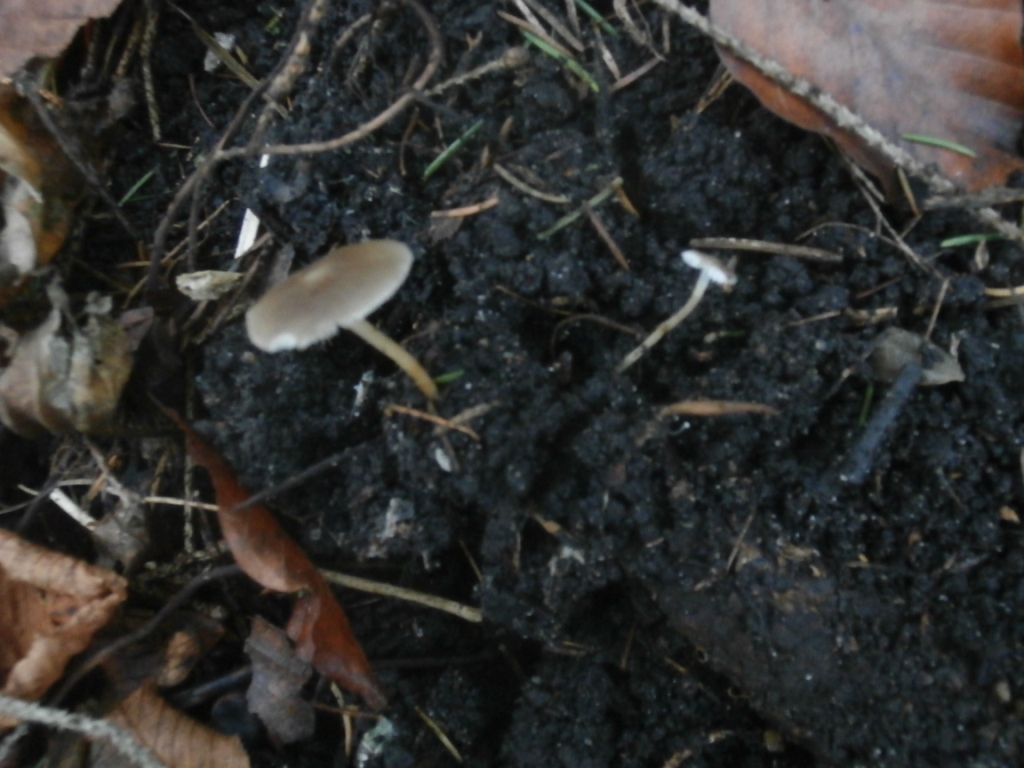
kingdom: Fungi
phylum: Basidiomycota
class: Agaricomycetes
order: Agaricales
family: Physalacriaceae
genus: Strobilurus
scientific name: Strobilurus esculentus
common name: gran-koglehat
